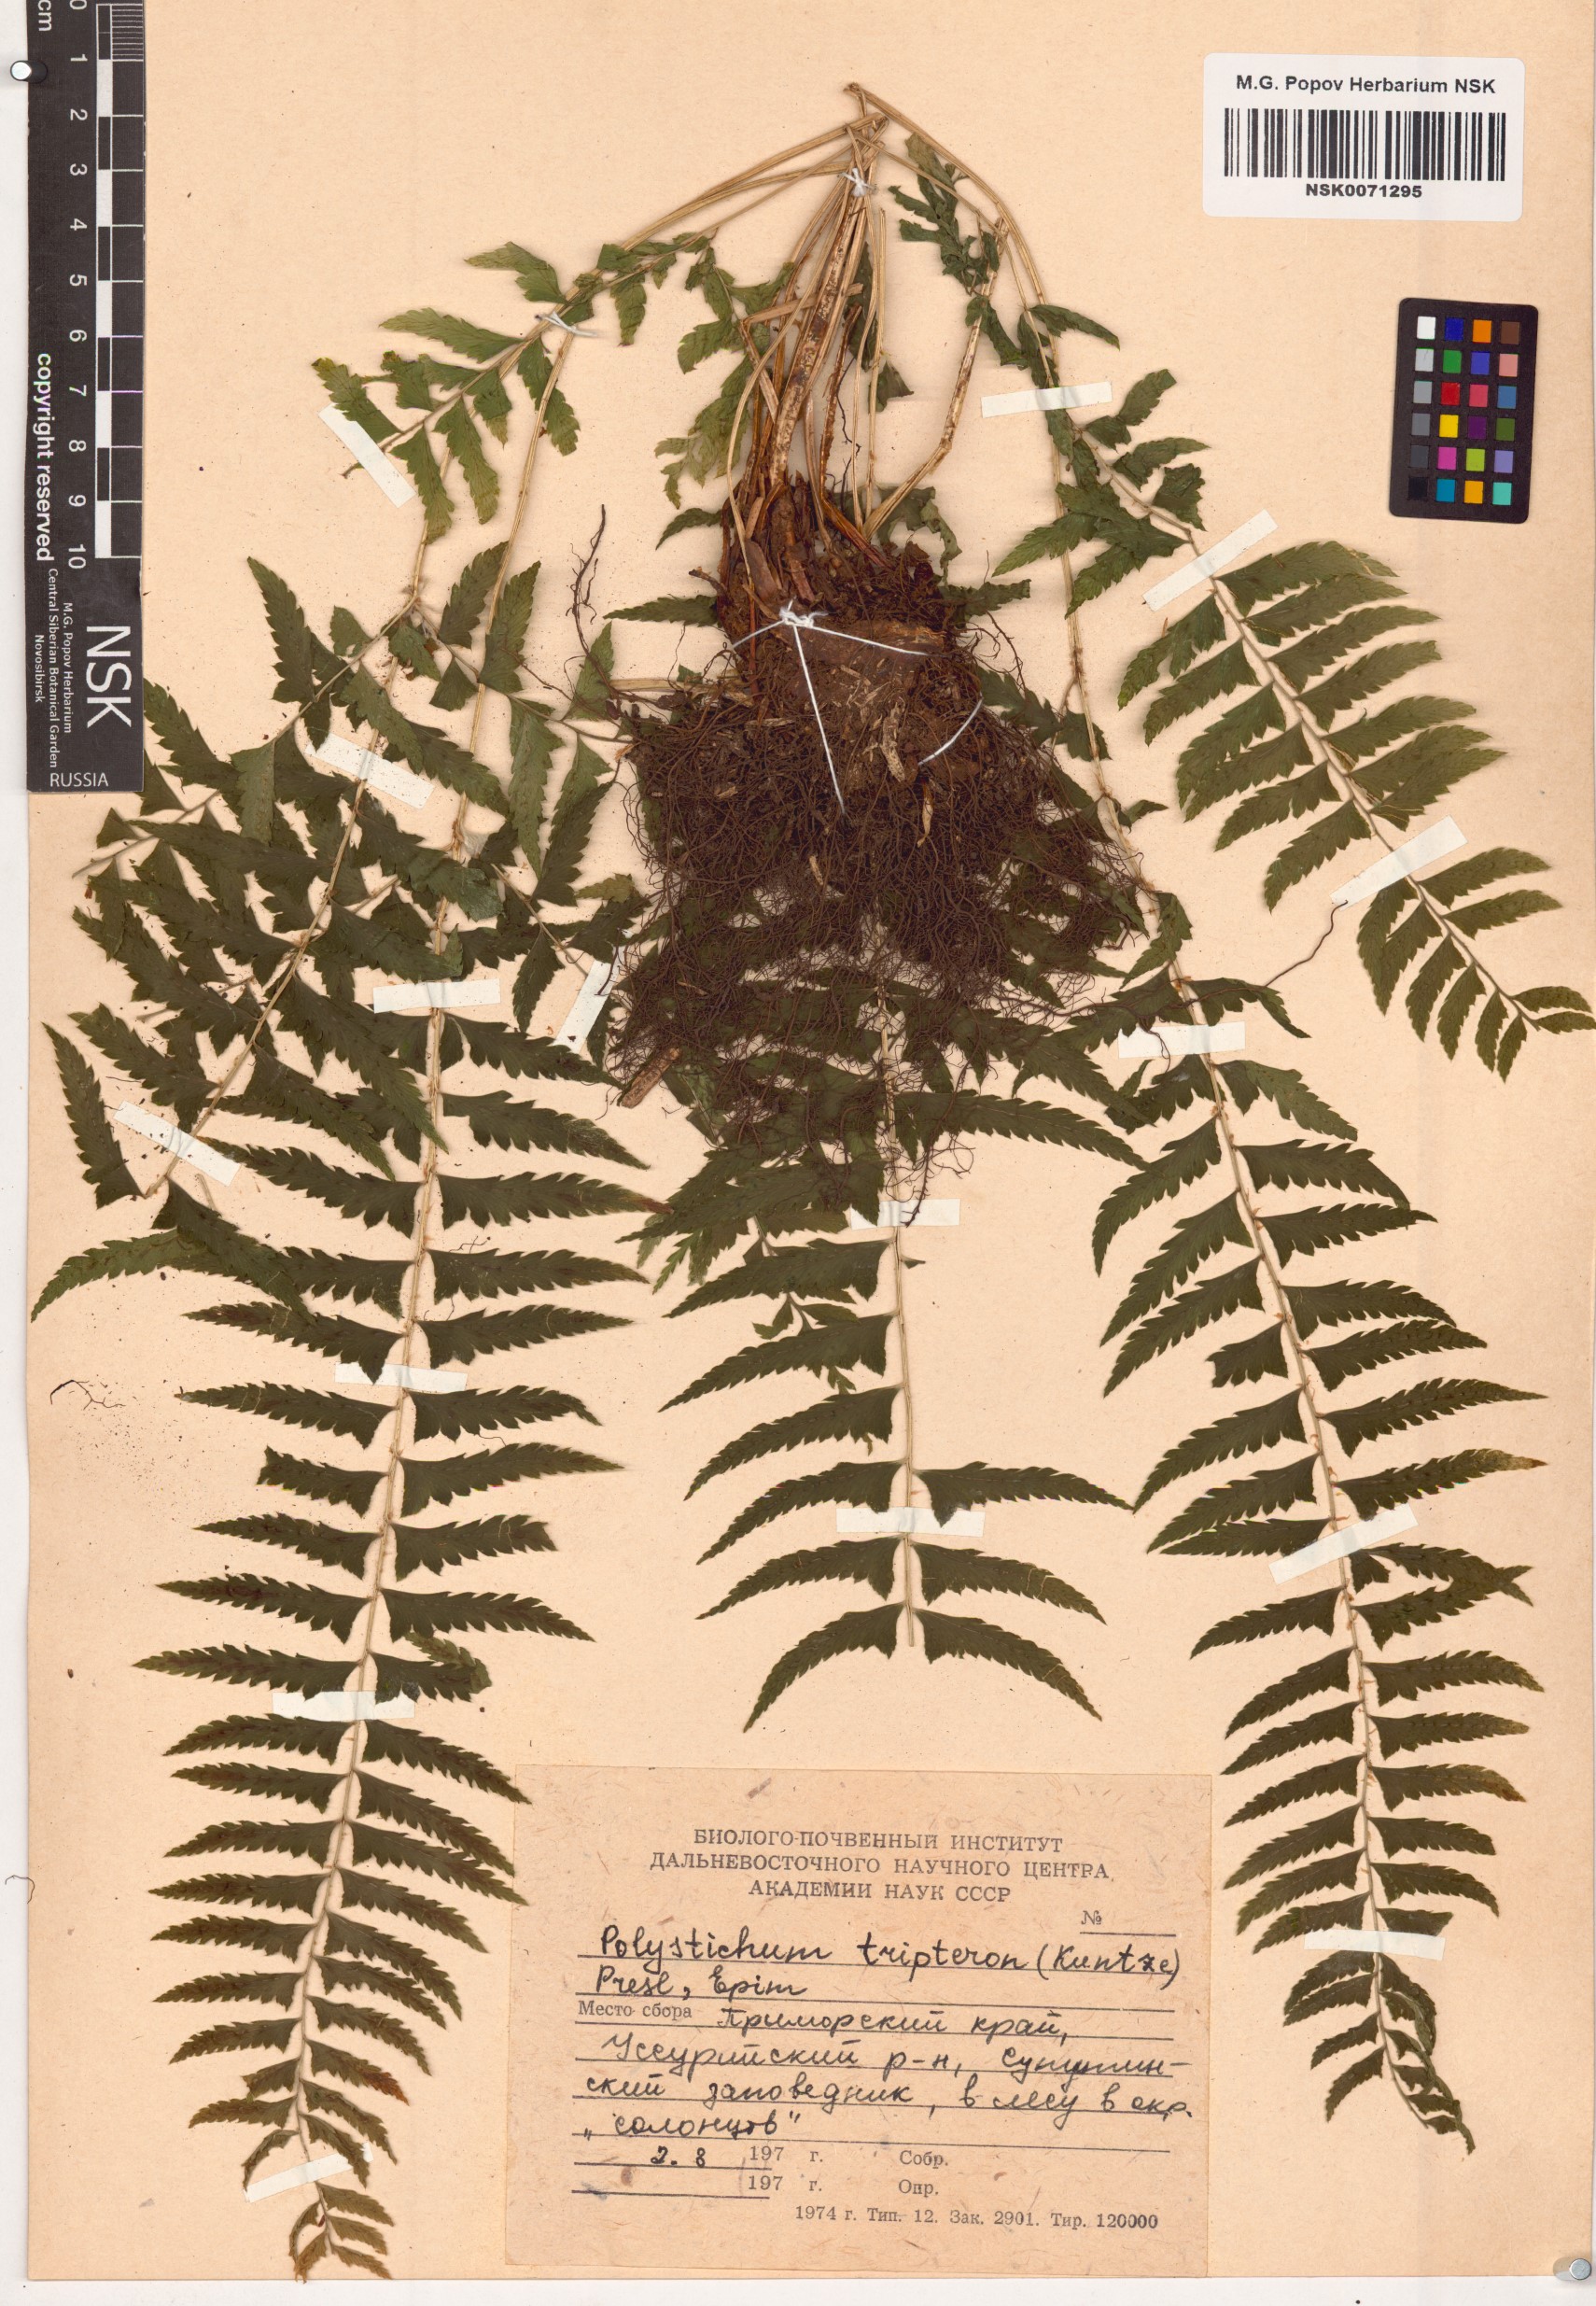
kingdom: Plantae
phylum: Tracheophyta
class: Polypodiopsida
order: Polypodiales
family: Dryopteridaceae
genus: Polystichum
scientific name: Polystichum tripteron
